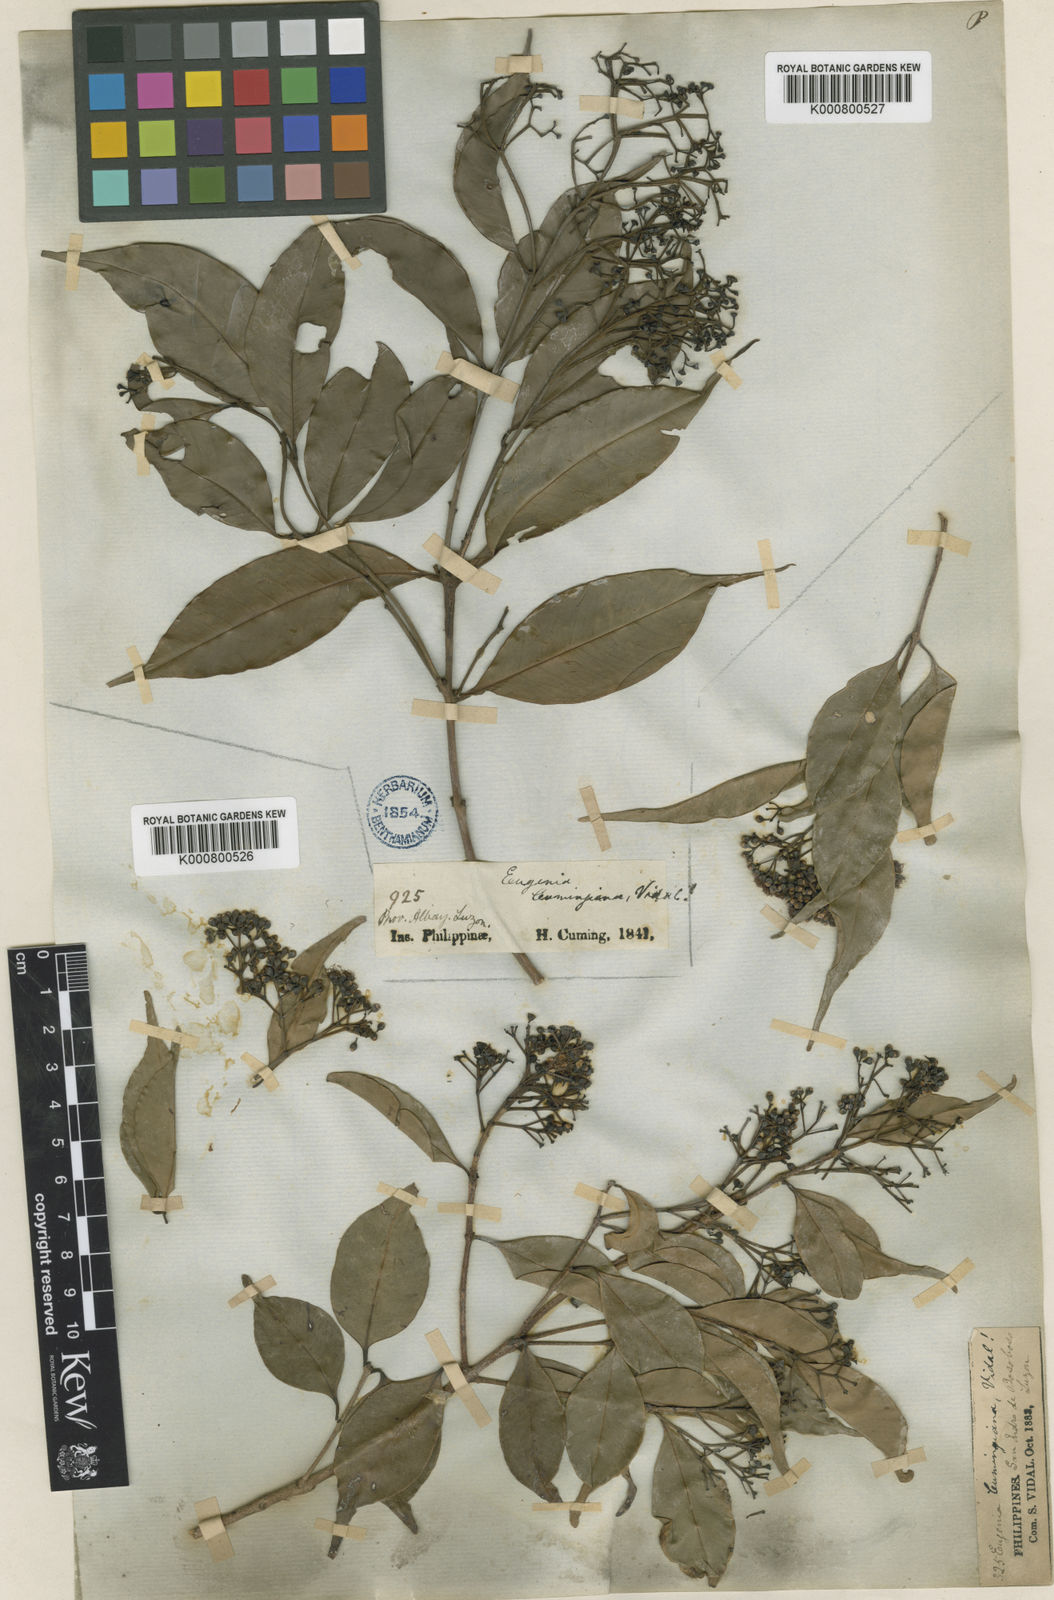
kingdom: Plantae
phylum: Tracheophyta
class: Magnoliopsida
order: Myrtales
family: Myrtaceae
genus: Syzygium
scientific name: Syzygium acuminatissimum
